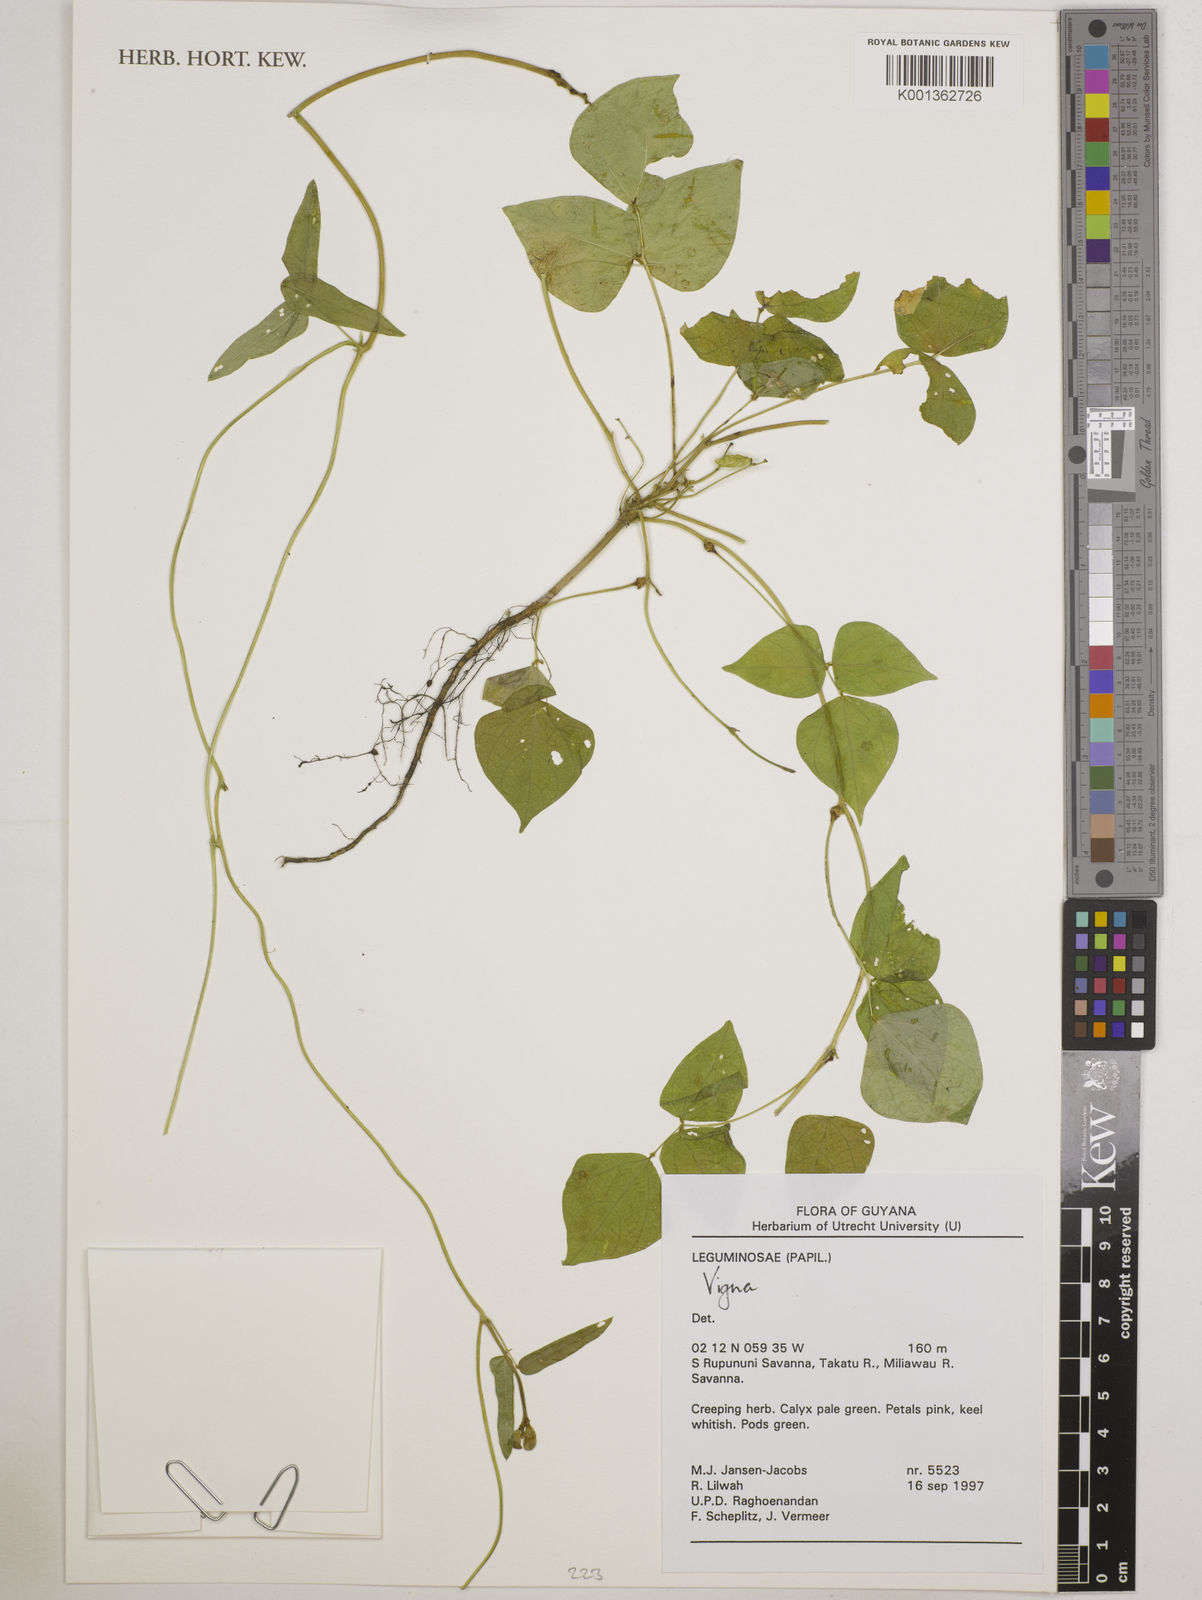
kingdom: Plantae
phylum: Tracheophyta
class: Magnoliopsida
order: Fabales
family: Fabaceae
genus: Vigna
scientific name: Vigna
